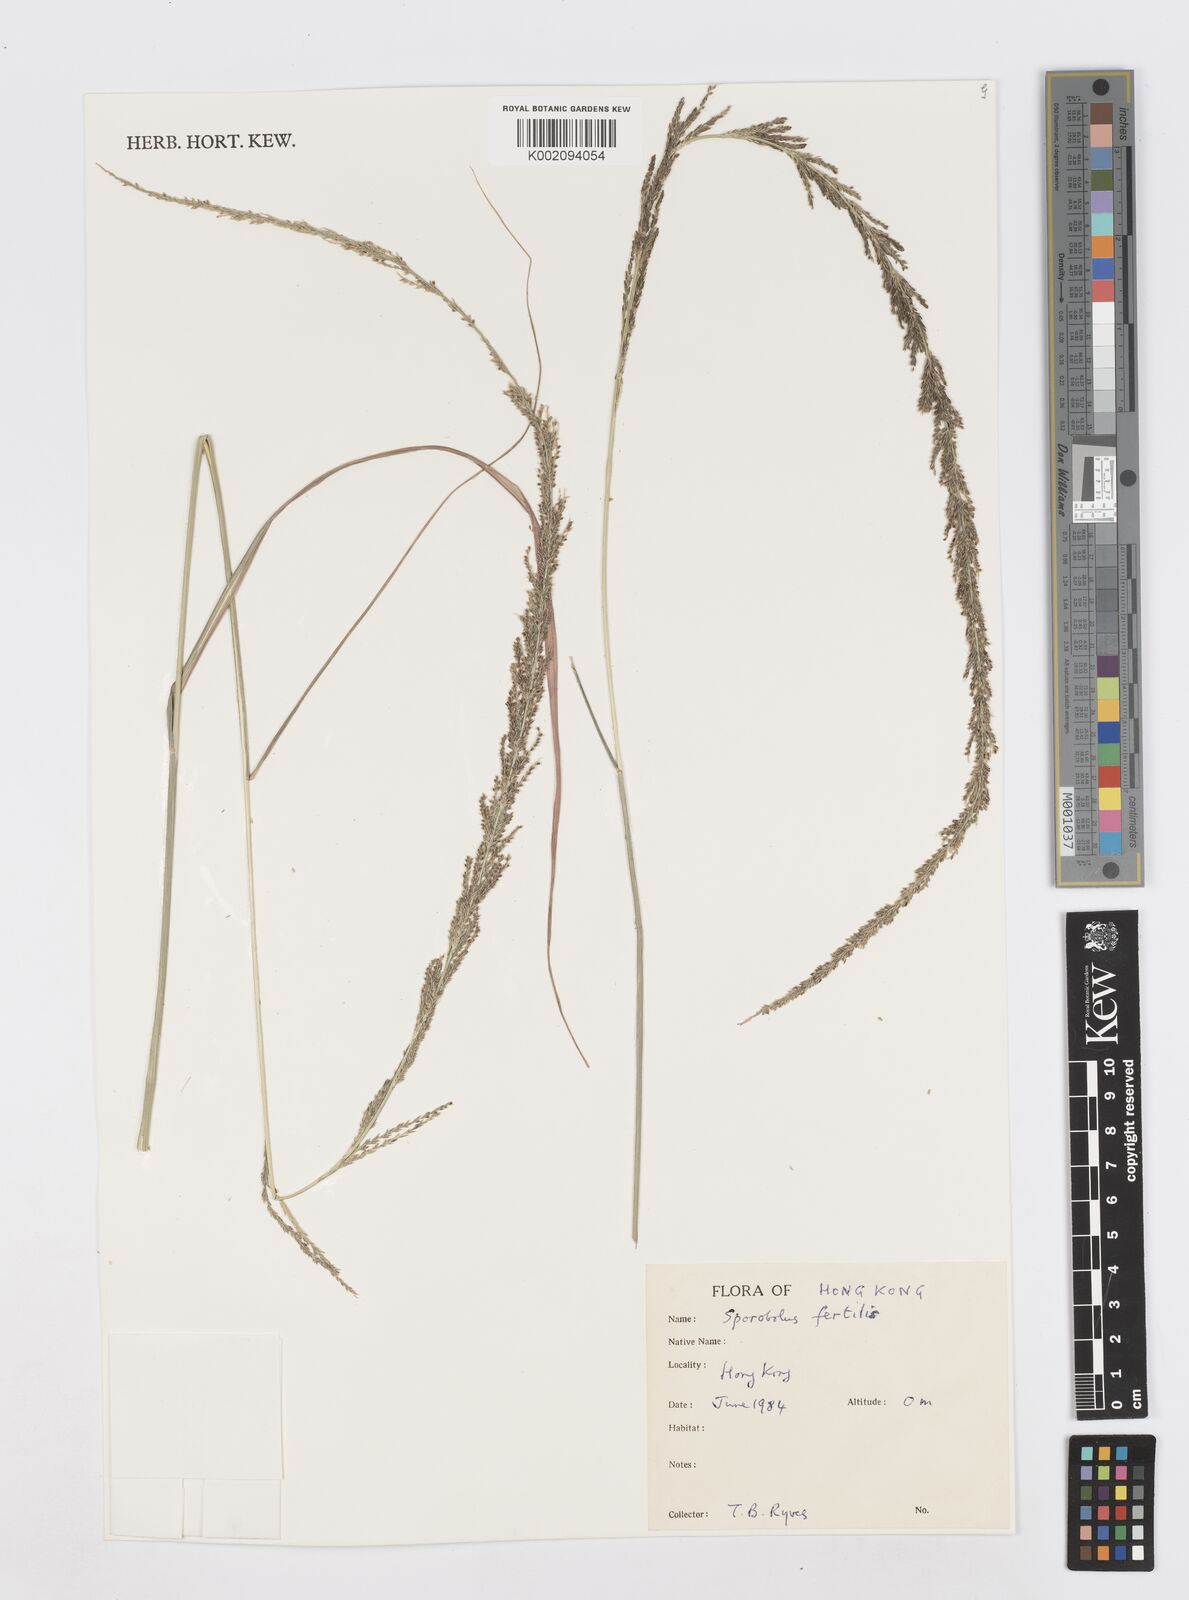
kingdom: Plantae
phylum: Tracheophyta
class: Liliopsida
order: Poales
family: Poaceae
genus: Sporobolus
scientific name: Sporobolus fertilis
